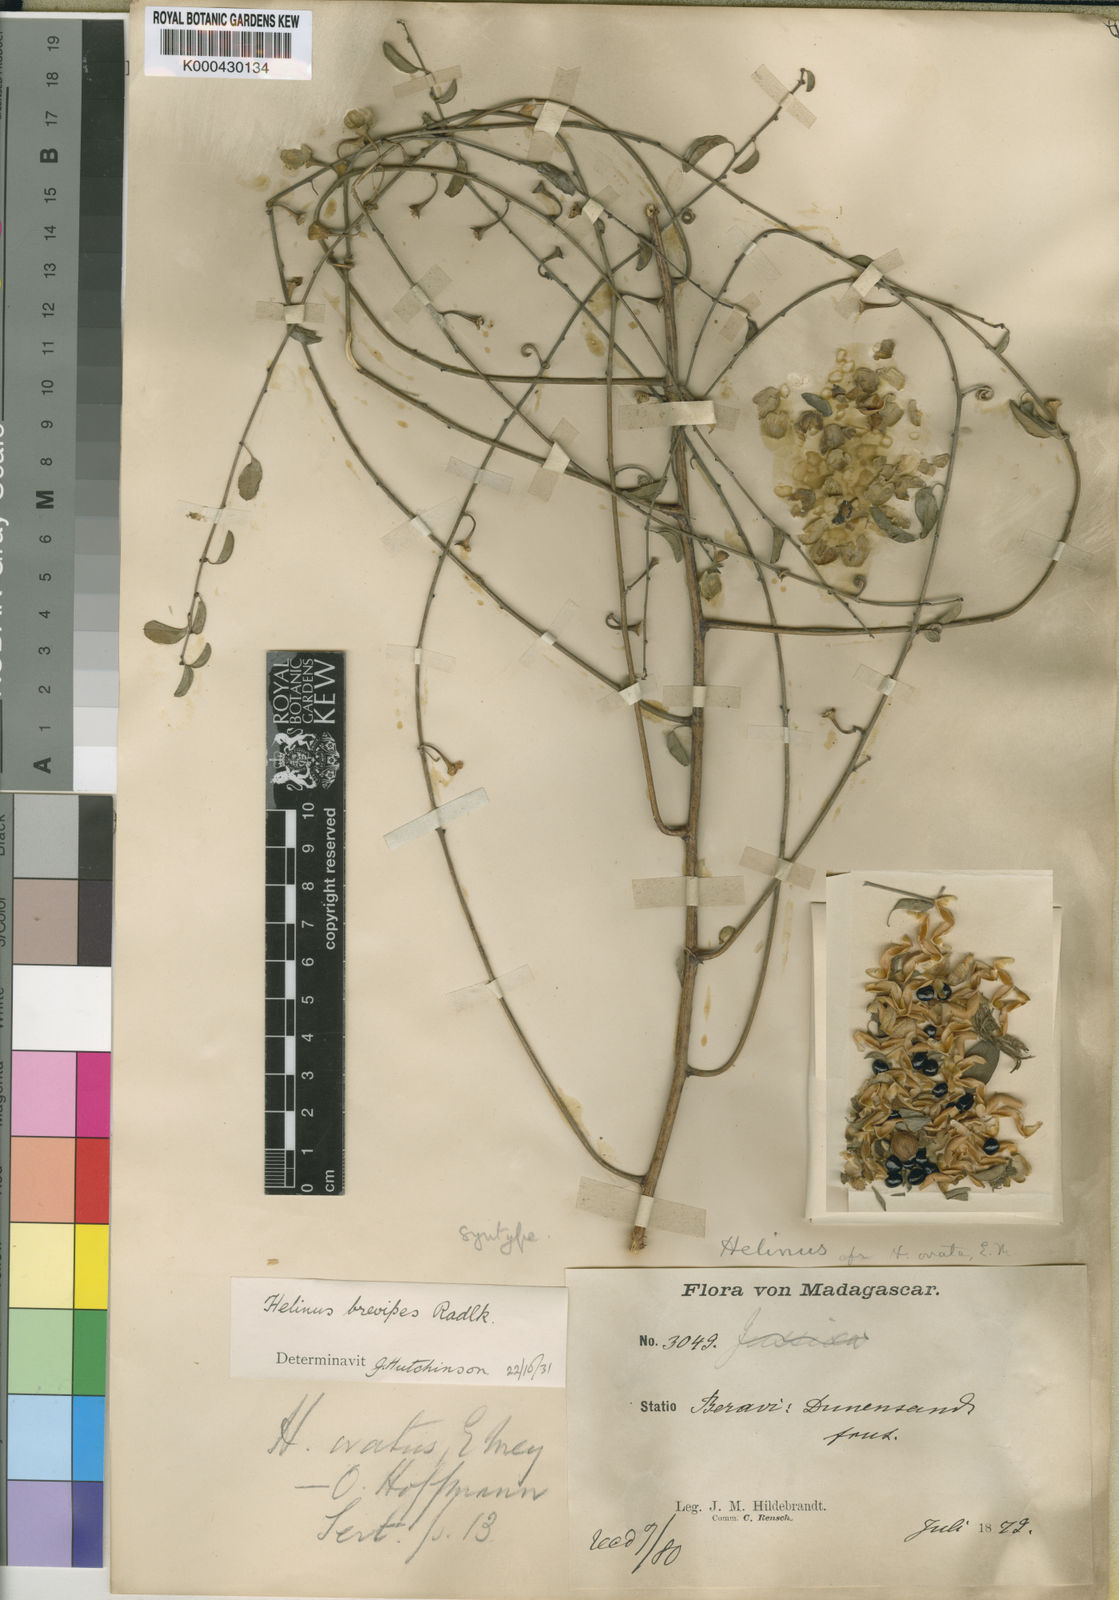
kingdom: Plantae
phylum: Tracheophyta
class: Magnoliopsida
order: Rosales
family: Rhamnaceae
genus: Helinus
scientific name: Helinus brevipes
